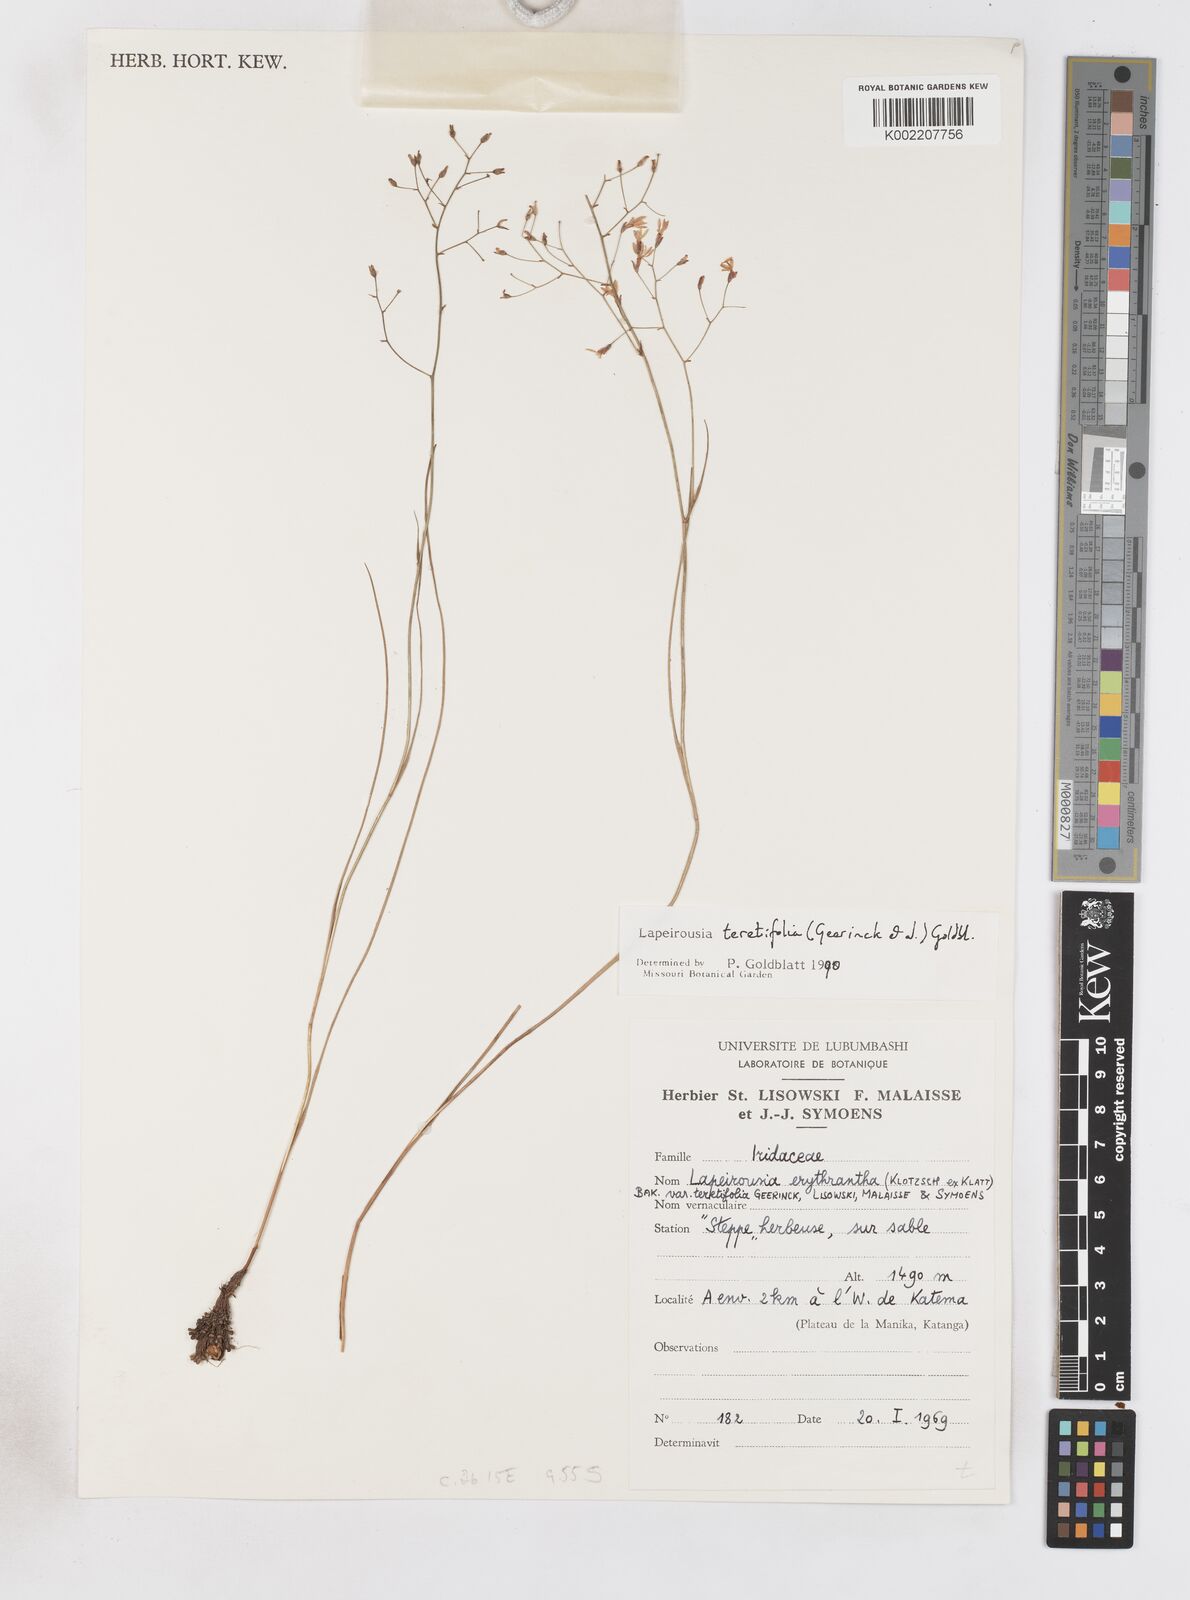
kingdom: Plantae
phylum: Tracheophyta
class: Liliopsida
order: Asparagales
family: Iridaceae
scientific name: Iridaceae
